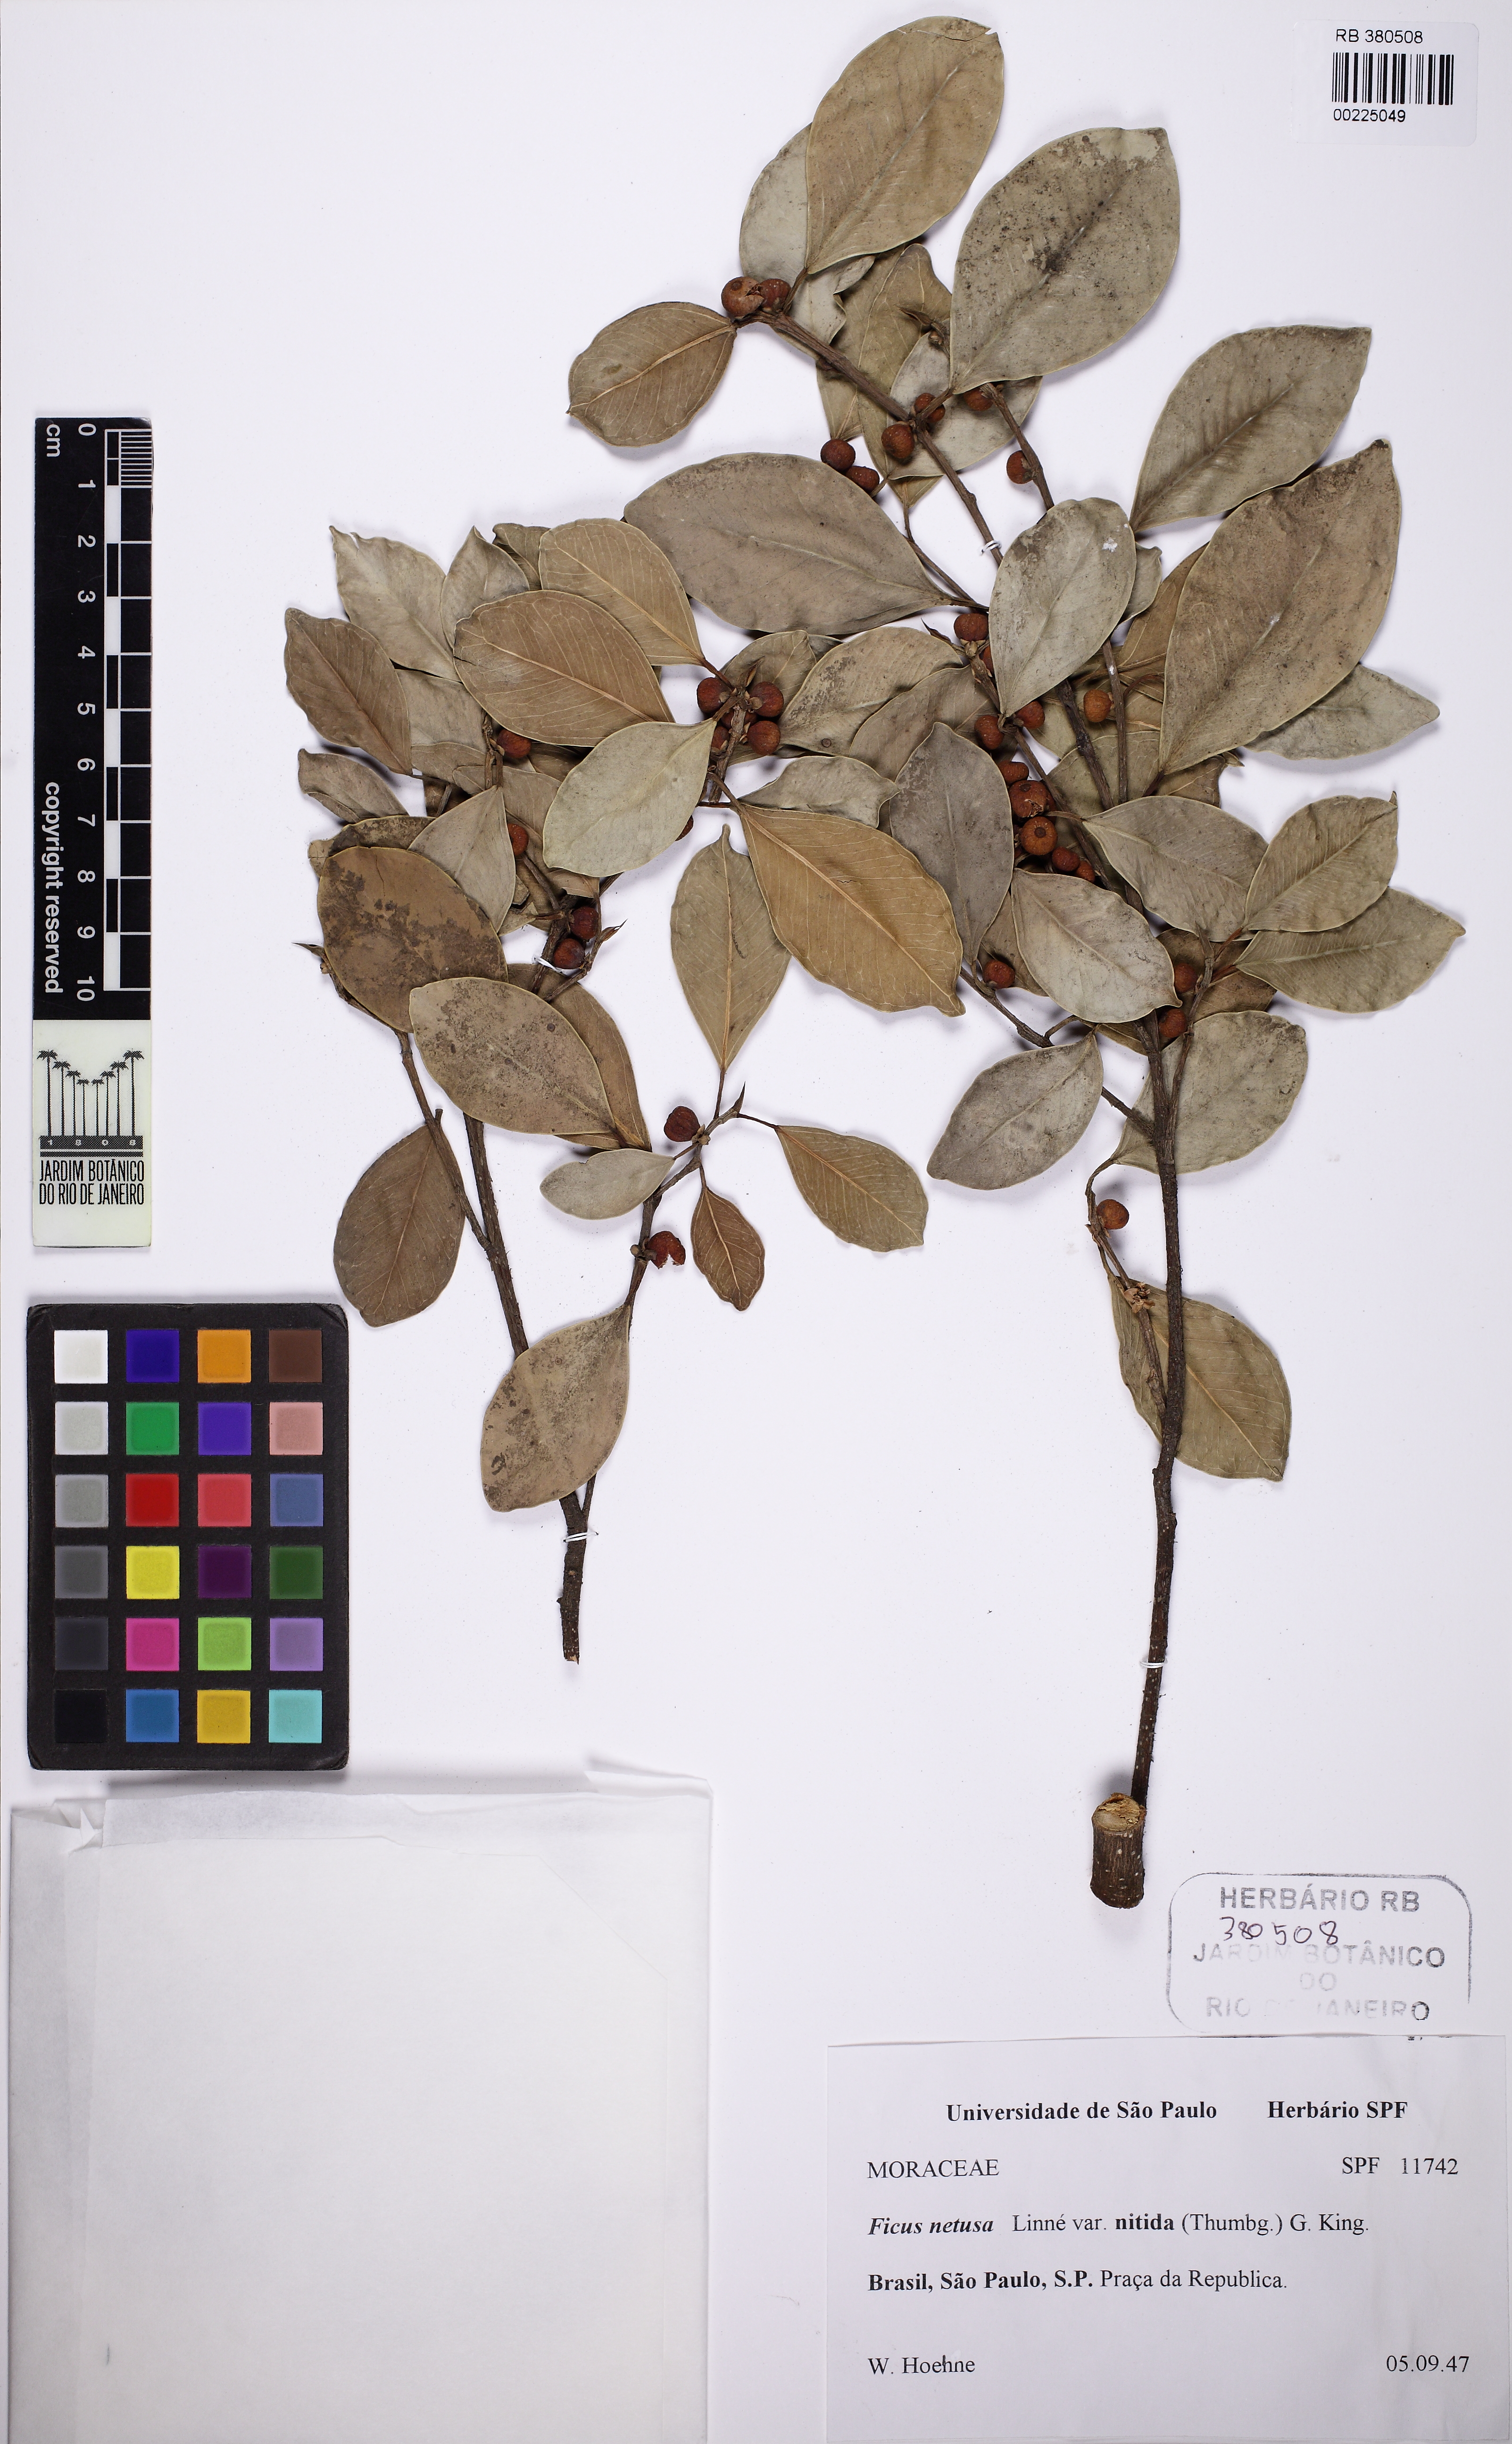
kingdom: Plantae
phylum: Tracheophyta
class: Magnoliopsida
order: Rosales
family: Moraceae
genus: Ficus
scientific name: Ficus benjamina
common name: Weeping fig
